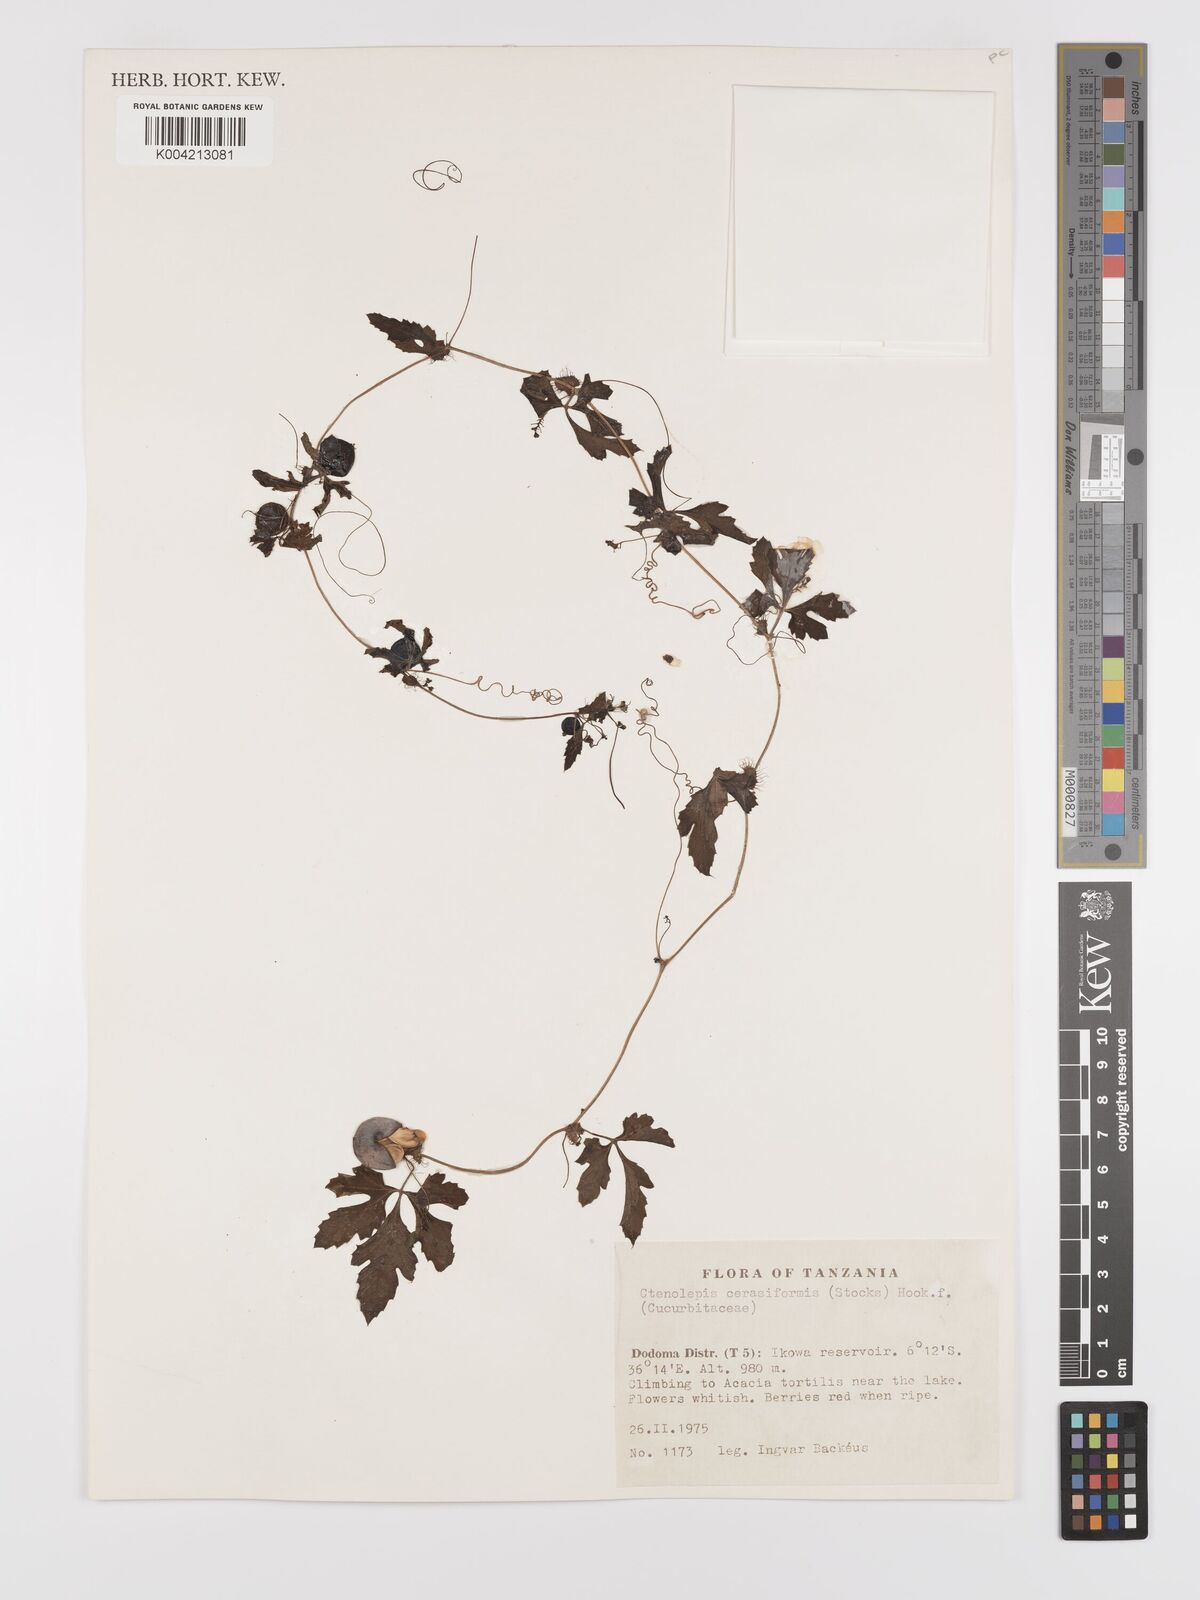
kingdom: Plantae
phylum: Tracheophyta
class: Magnoliopsida
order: Cucurbitales
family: Cucurbitaceae
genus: Blastania
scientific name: Blastania
